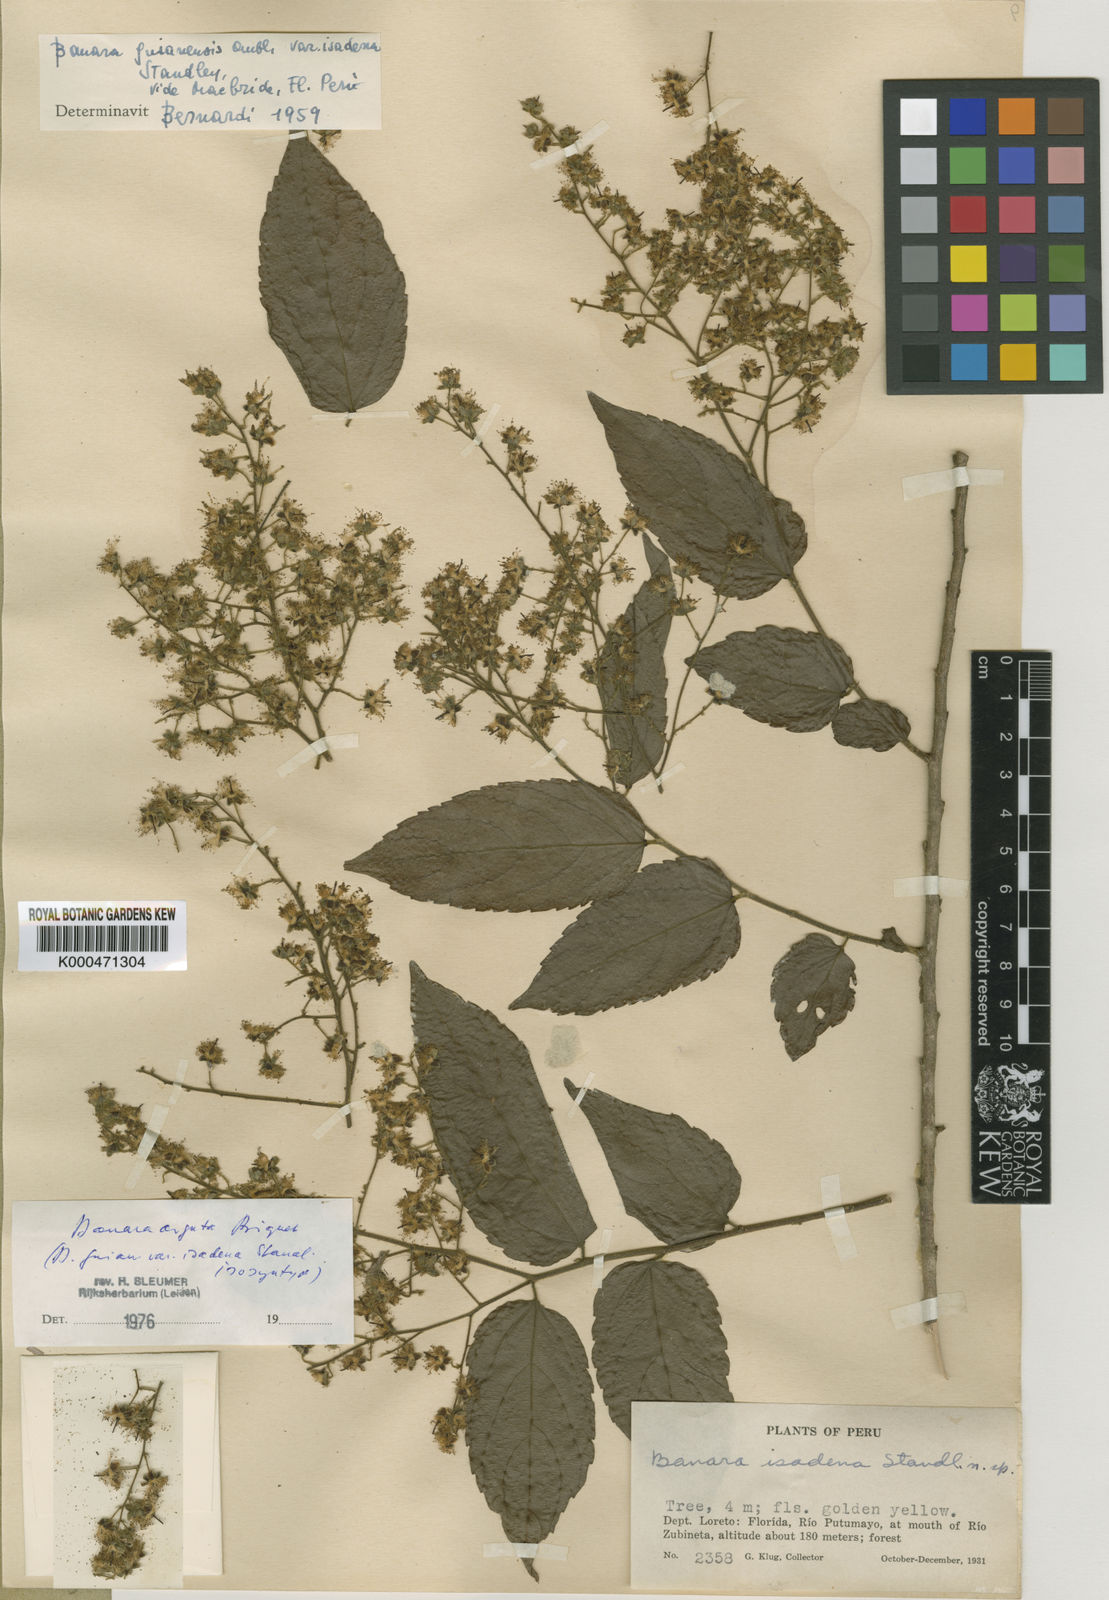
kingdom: Plantae
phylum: Tracheophyta
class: Magnoliopsida
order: Malpighiales
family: Salicaceae
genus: Banara
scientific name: Banara arguta
